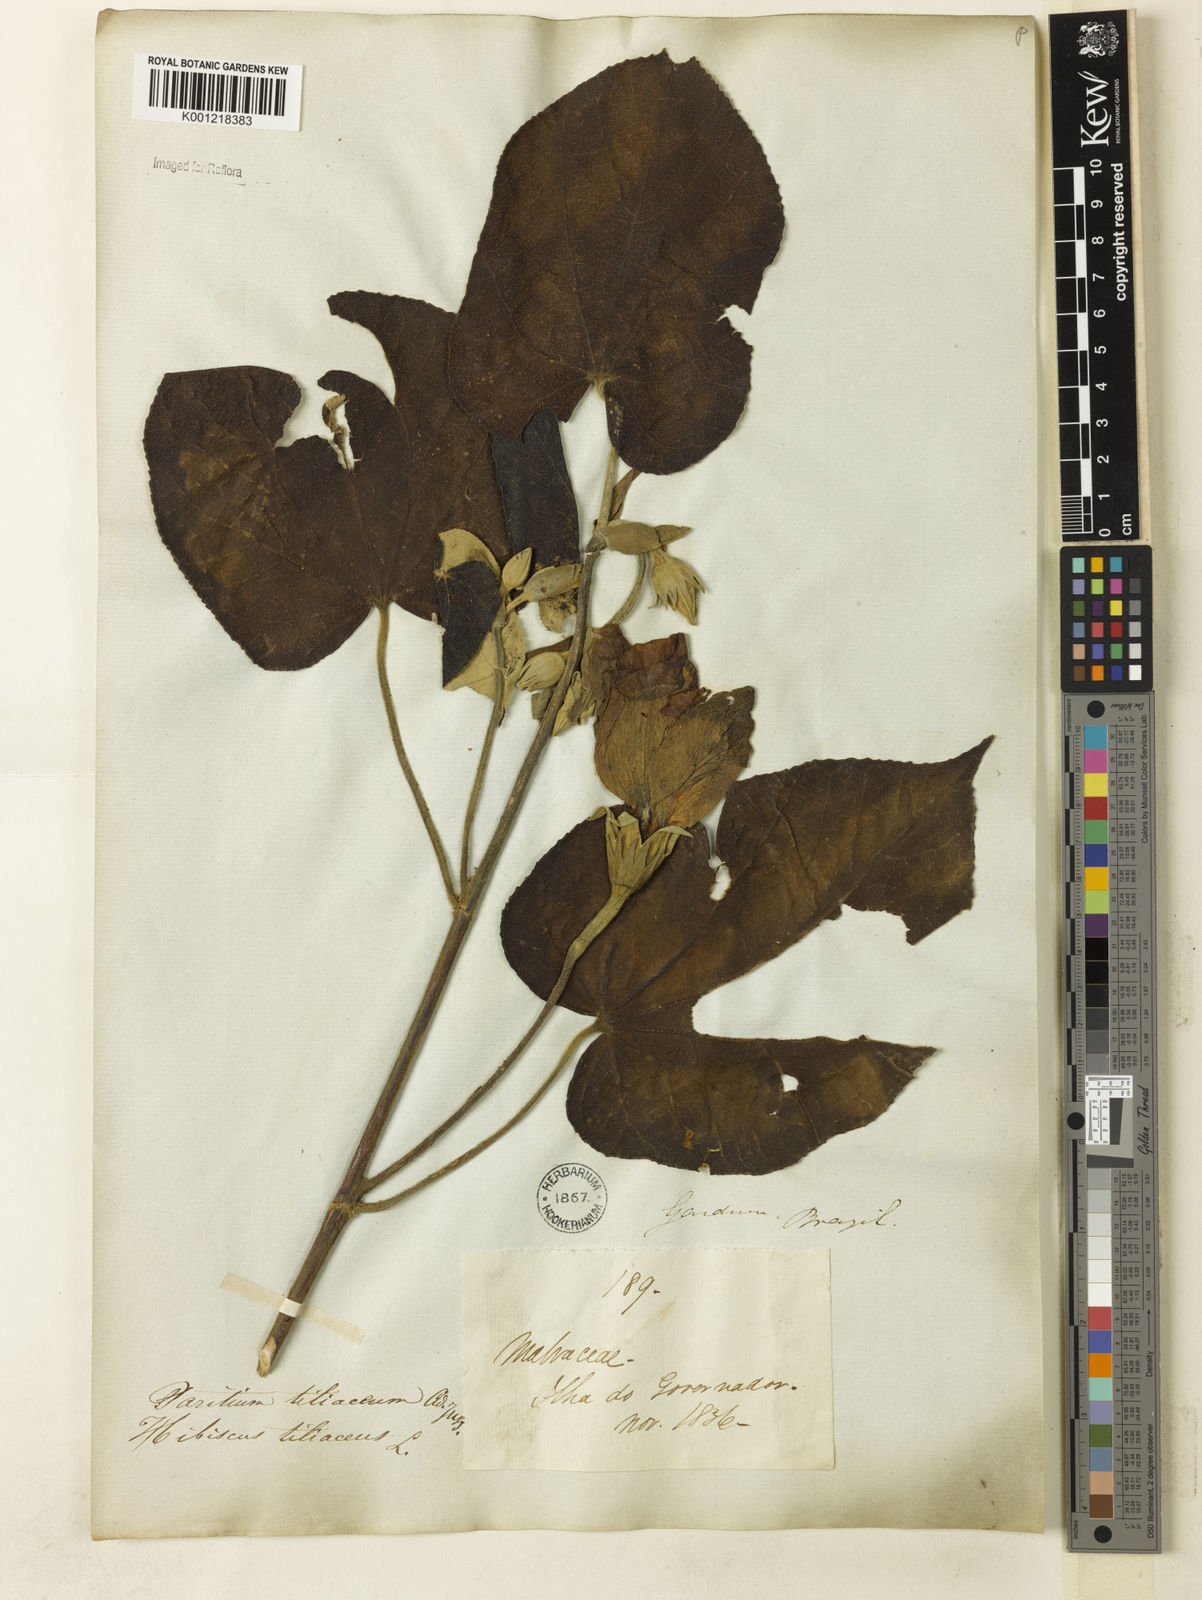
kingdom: Plantae
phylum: Tracheophyta
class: Magnoliopsida
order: Malvales
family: Malvaceae
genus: Hibiscus
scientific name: Hibiscus
